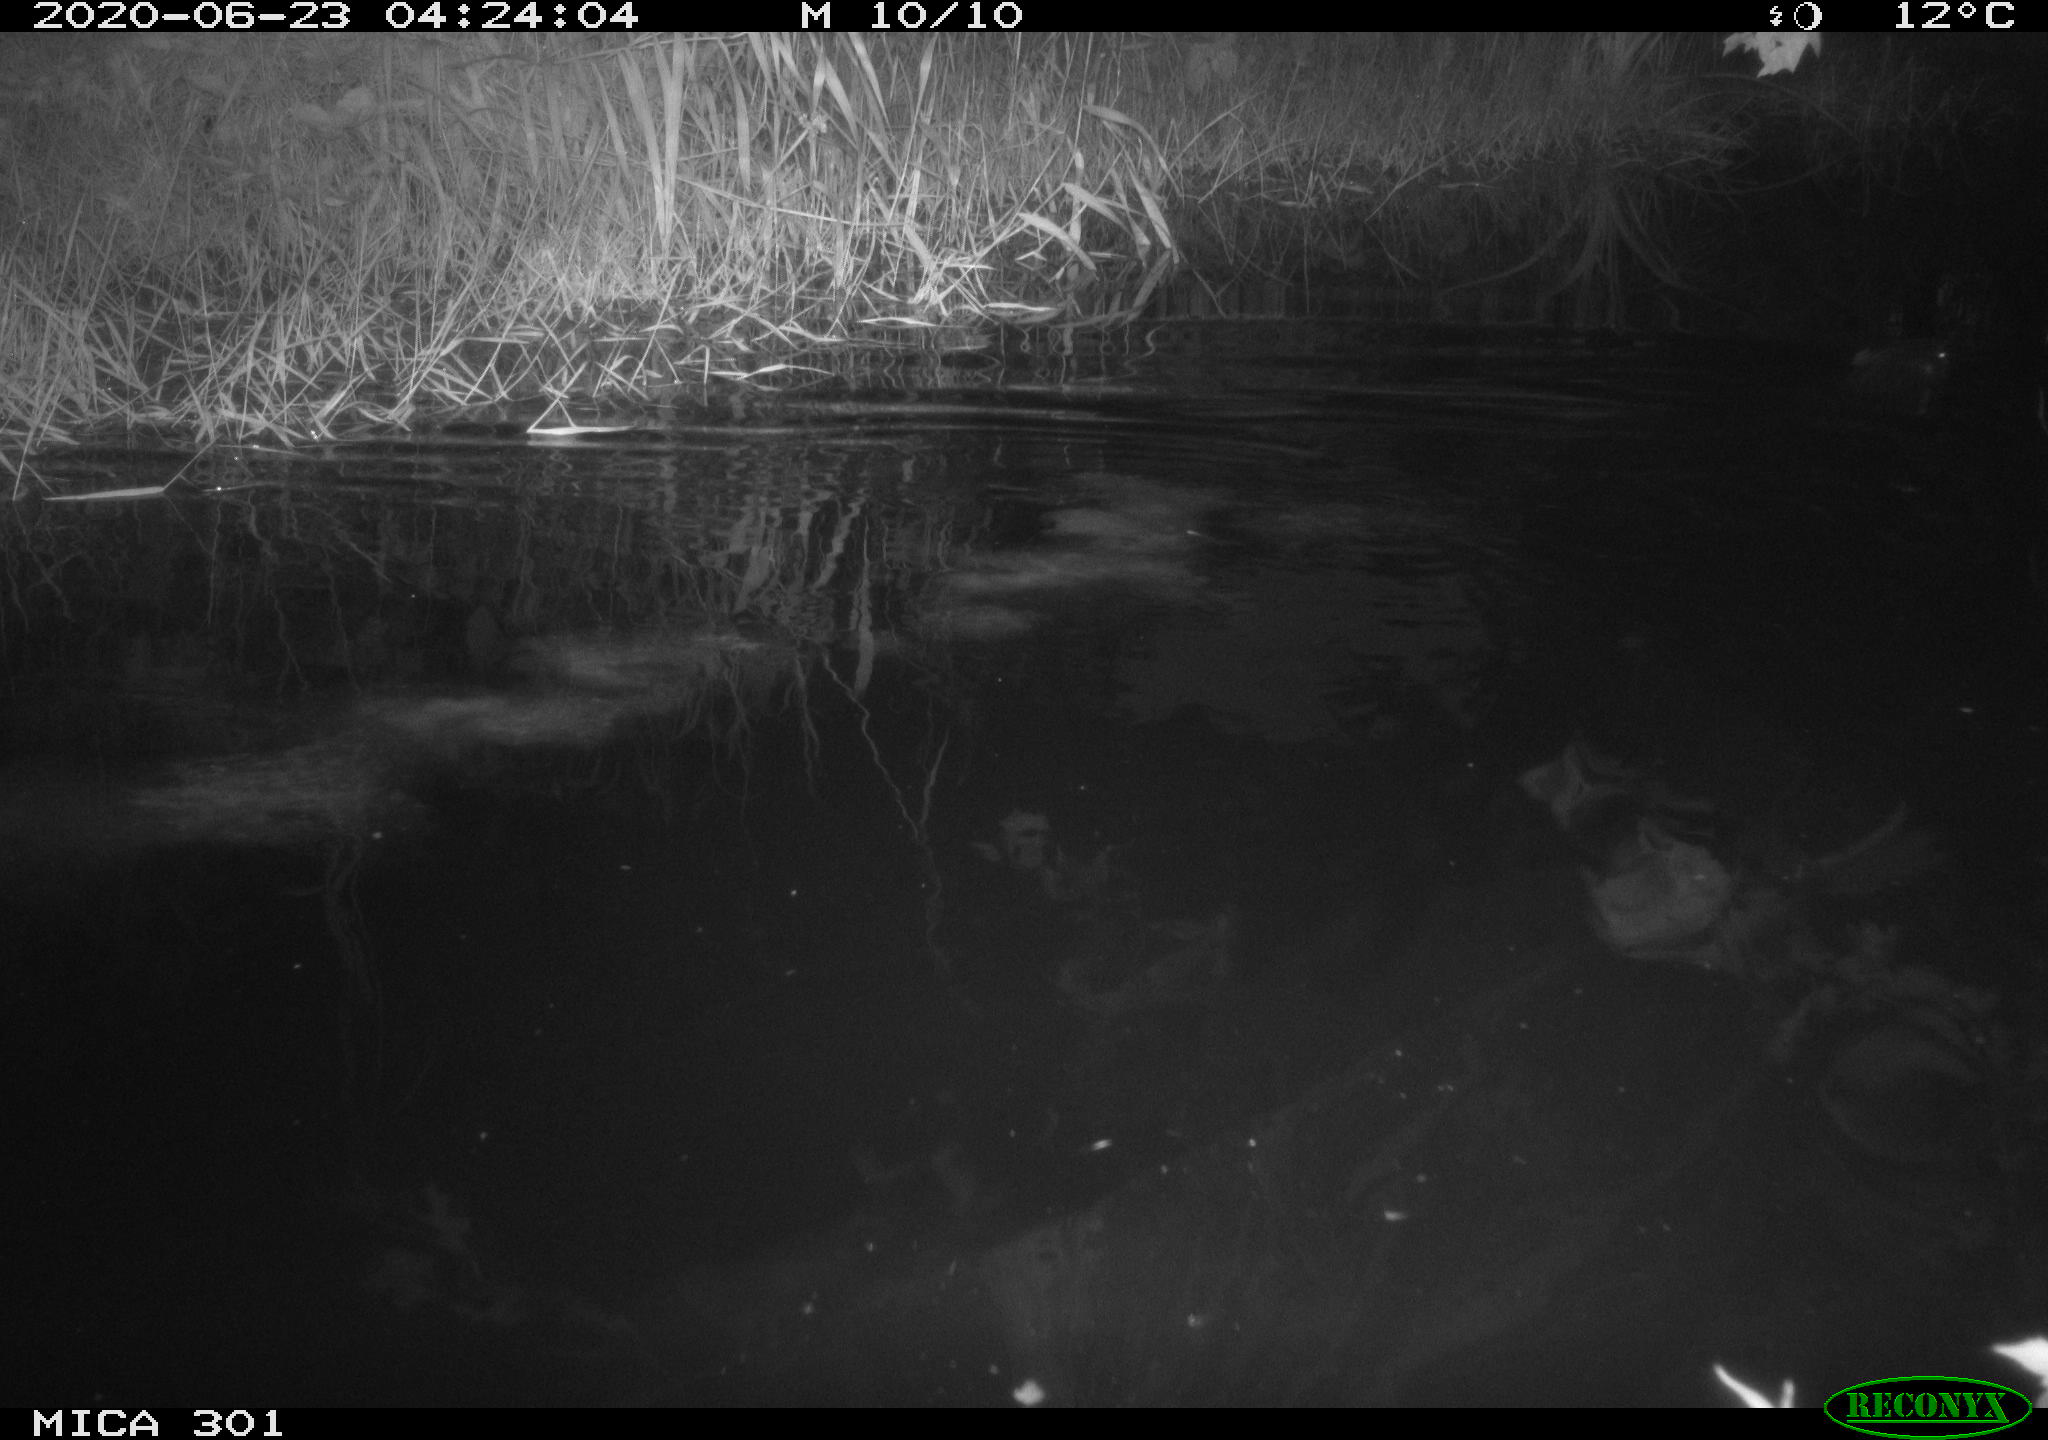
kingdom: Animalia
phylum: Chordata
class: Mammalia
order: Rodentia
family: Castoridae
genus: Castor
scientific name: Castor fiber
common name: Eurasian beaver
